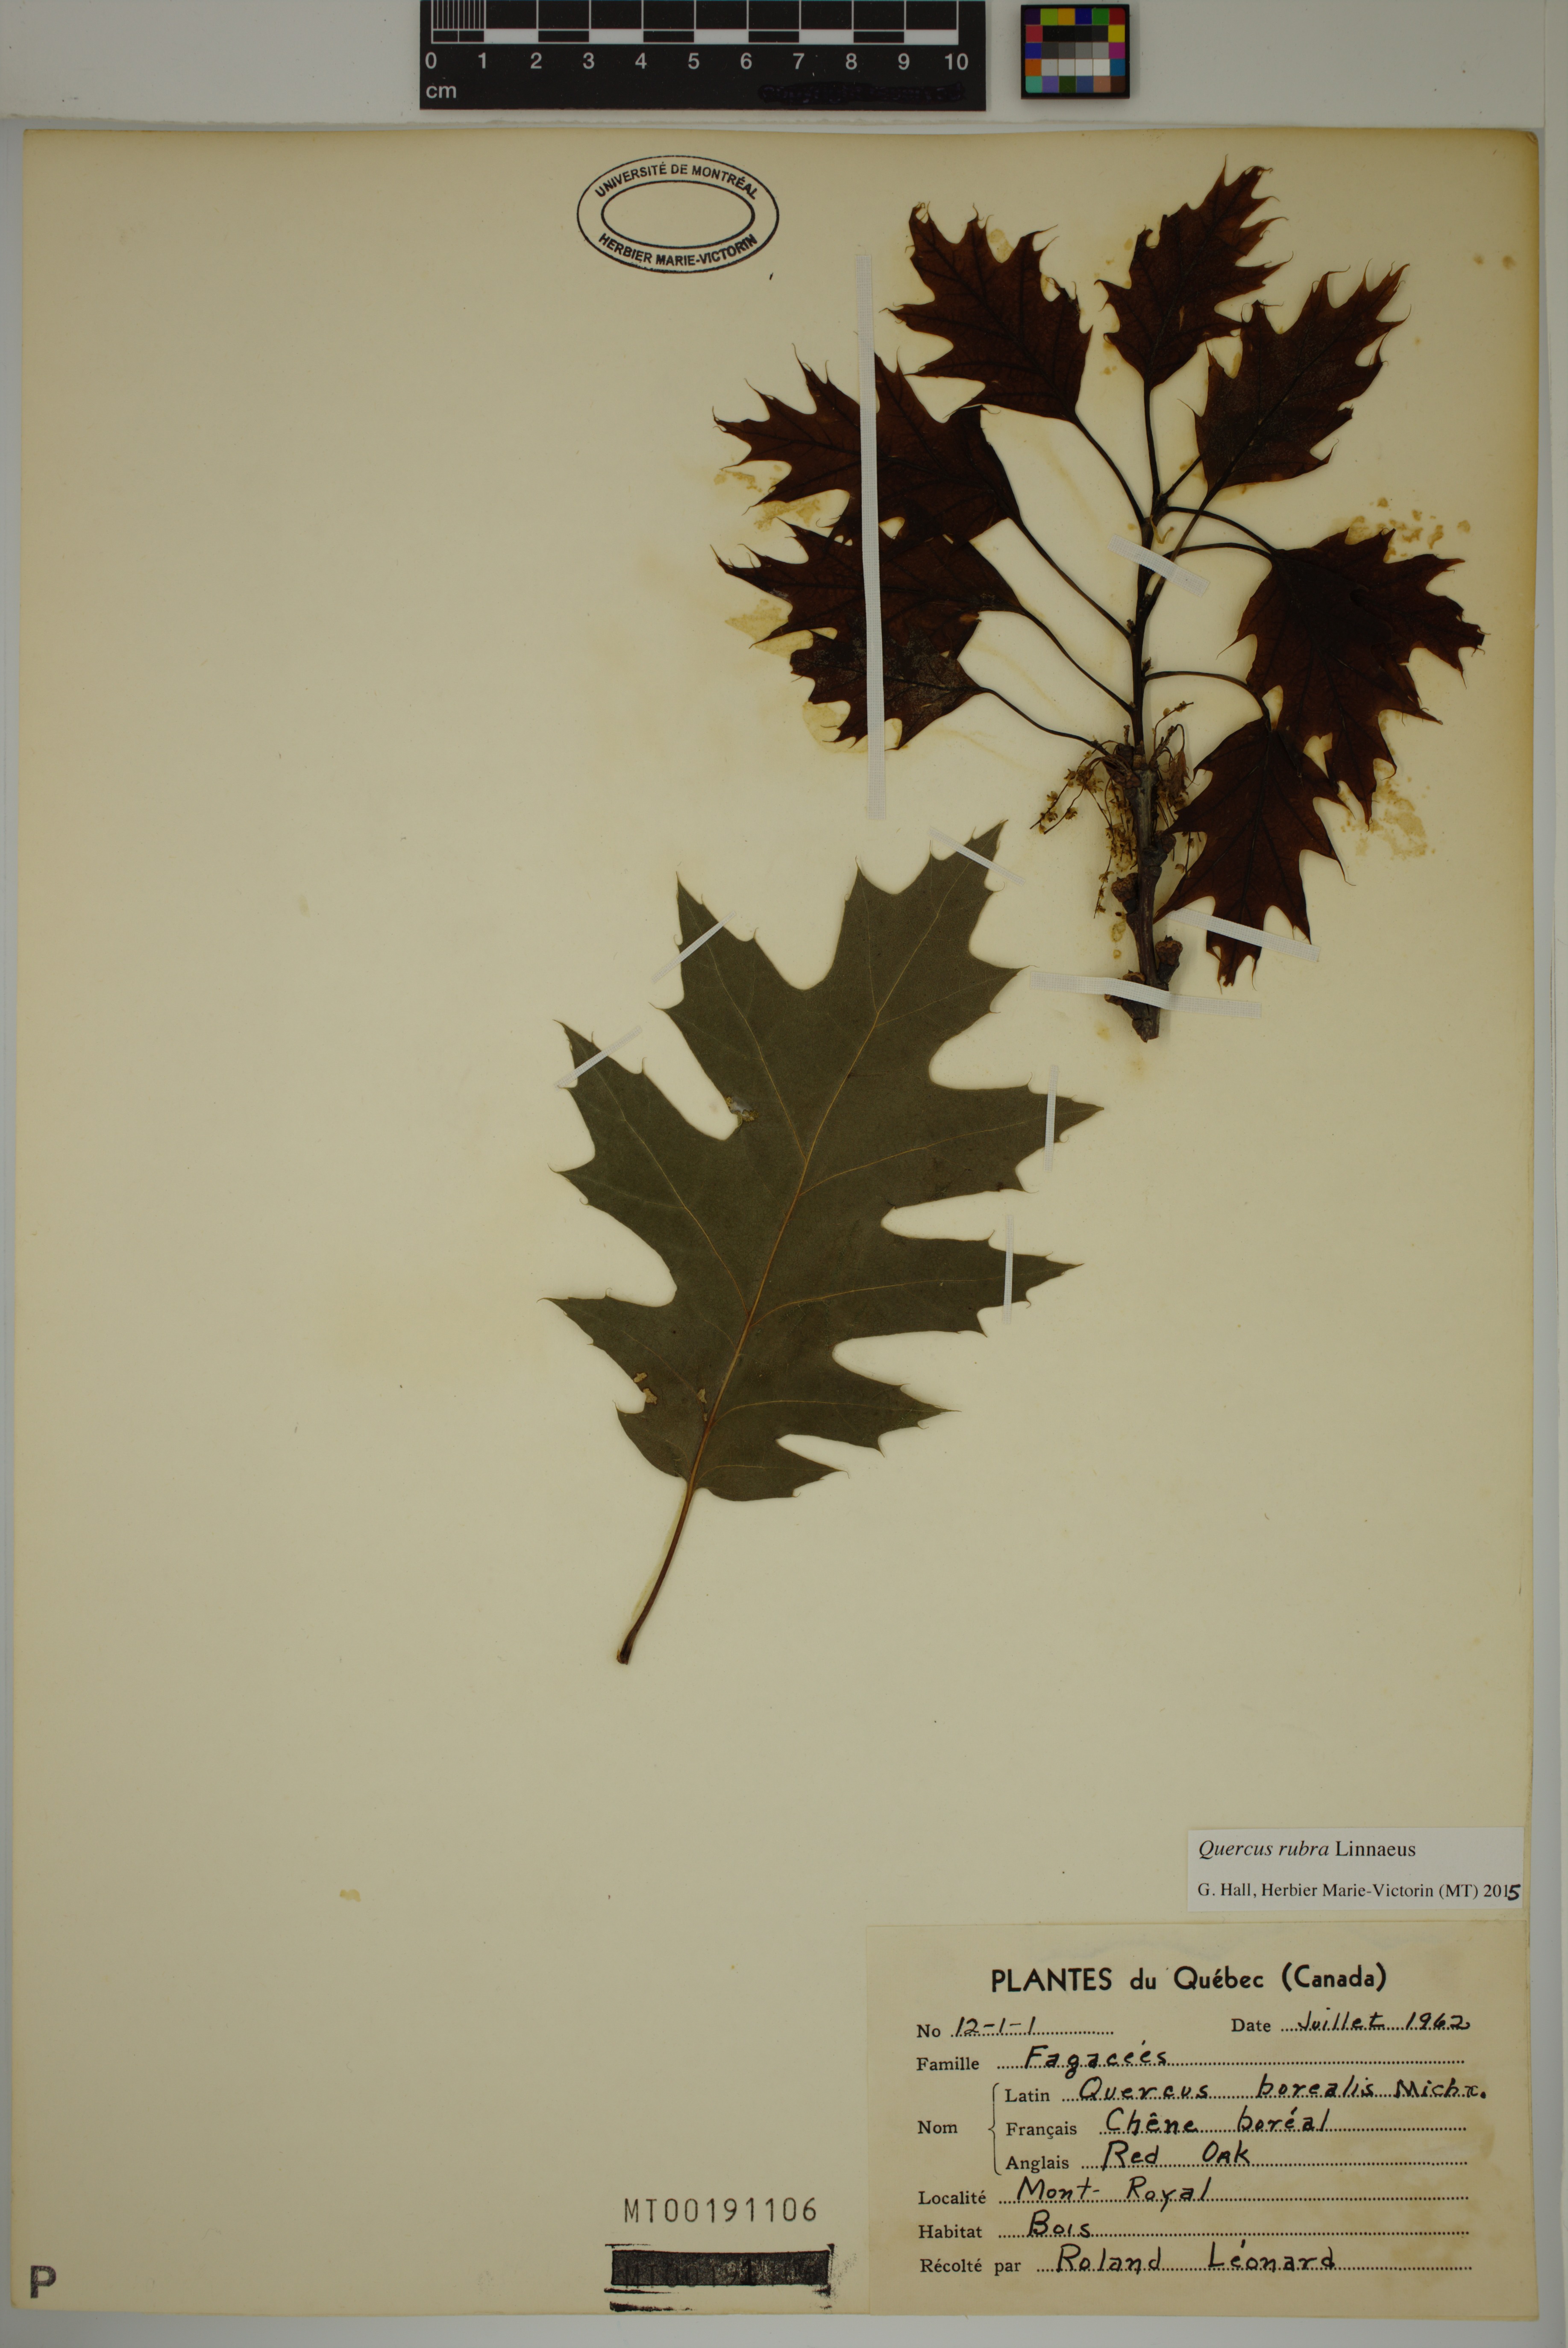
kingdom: Plantae
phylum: Tracheophyta
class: Magnoliopsida
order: Fagales
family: Fagaceae
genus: Quercus
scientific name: Quercus rubra
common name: Red oak
